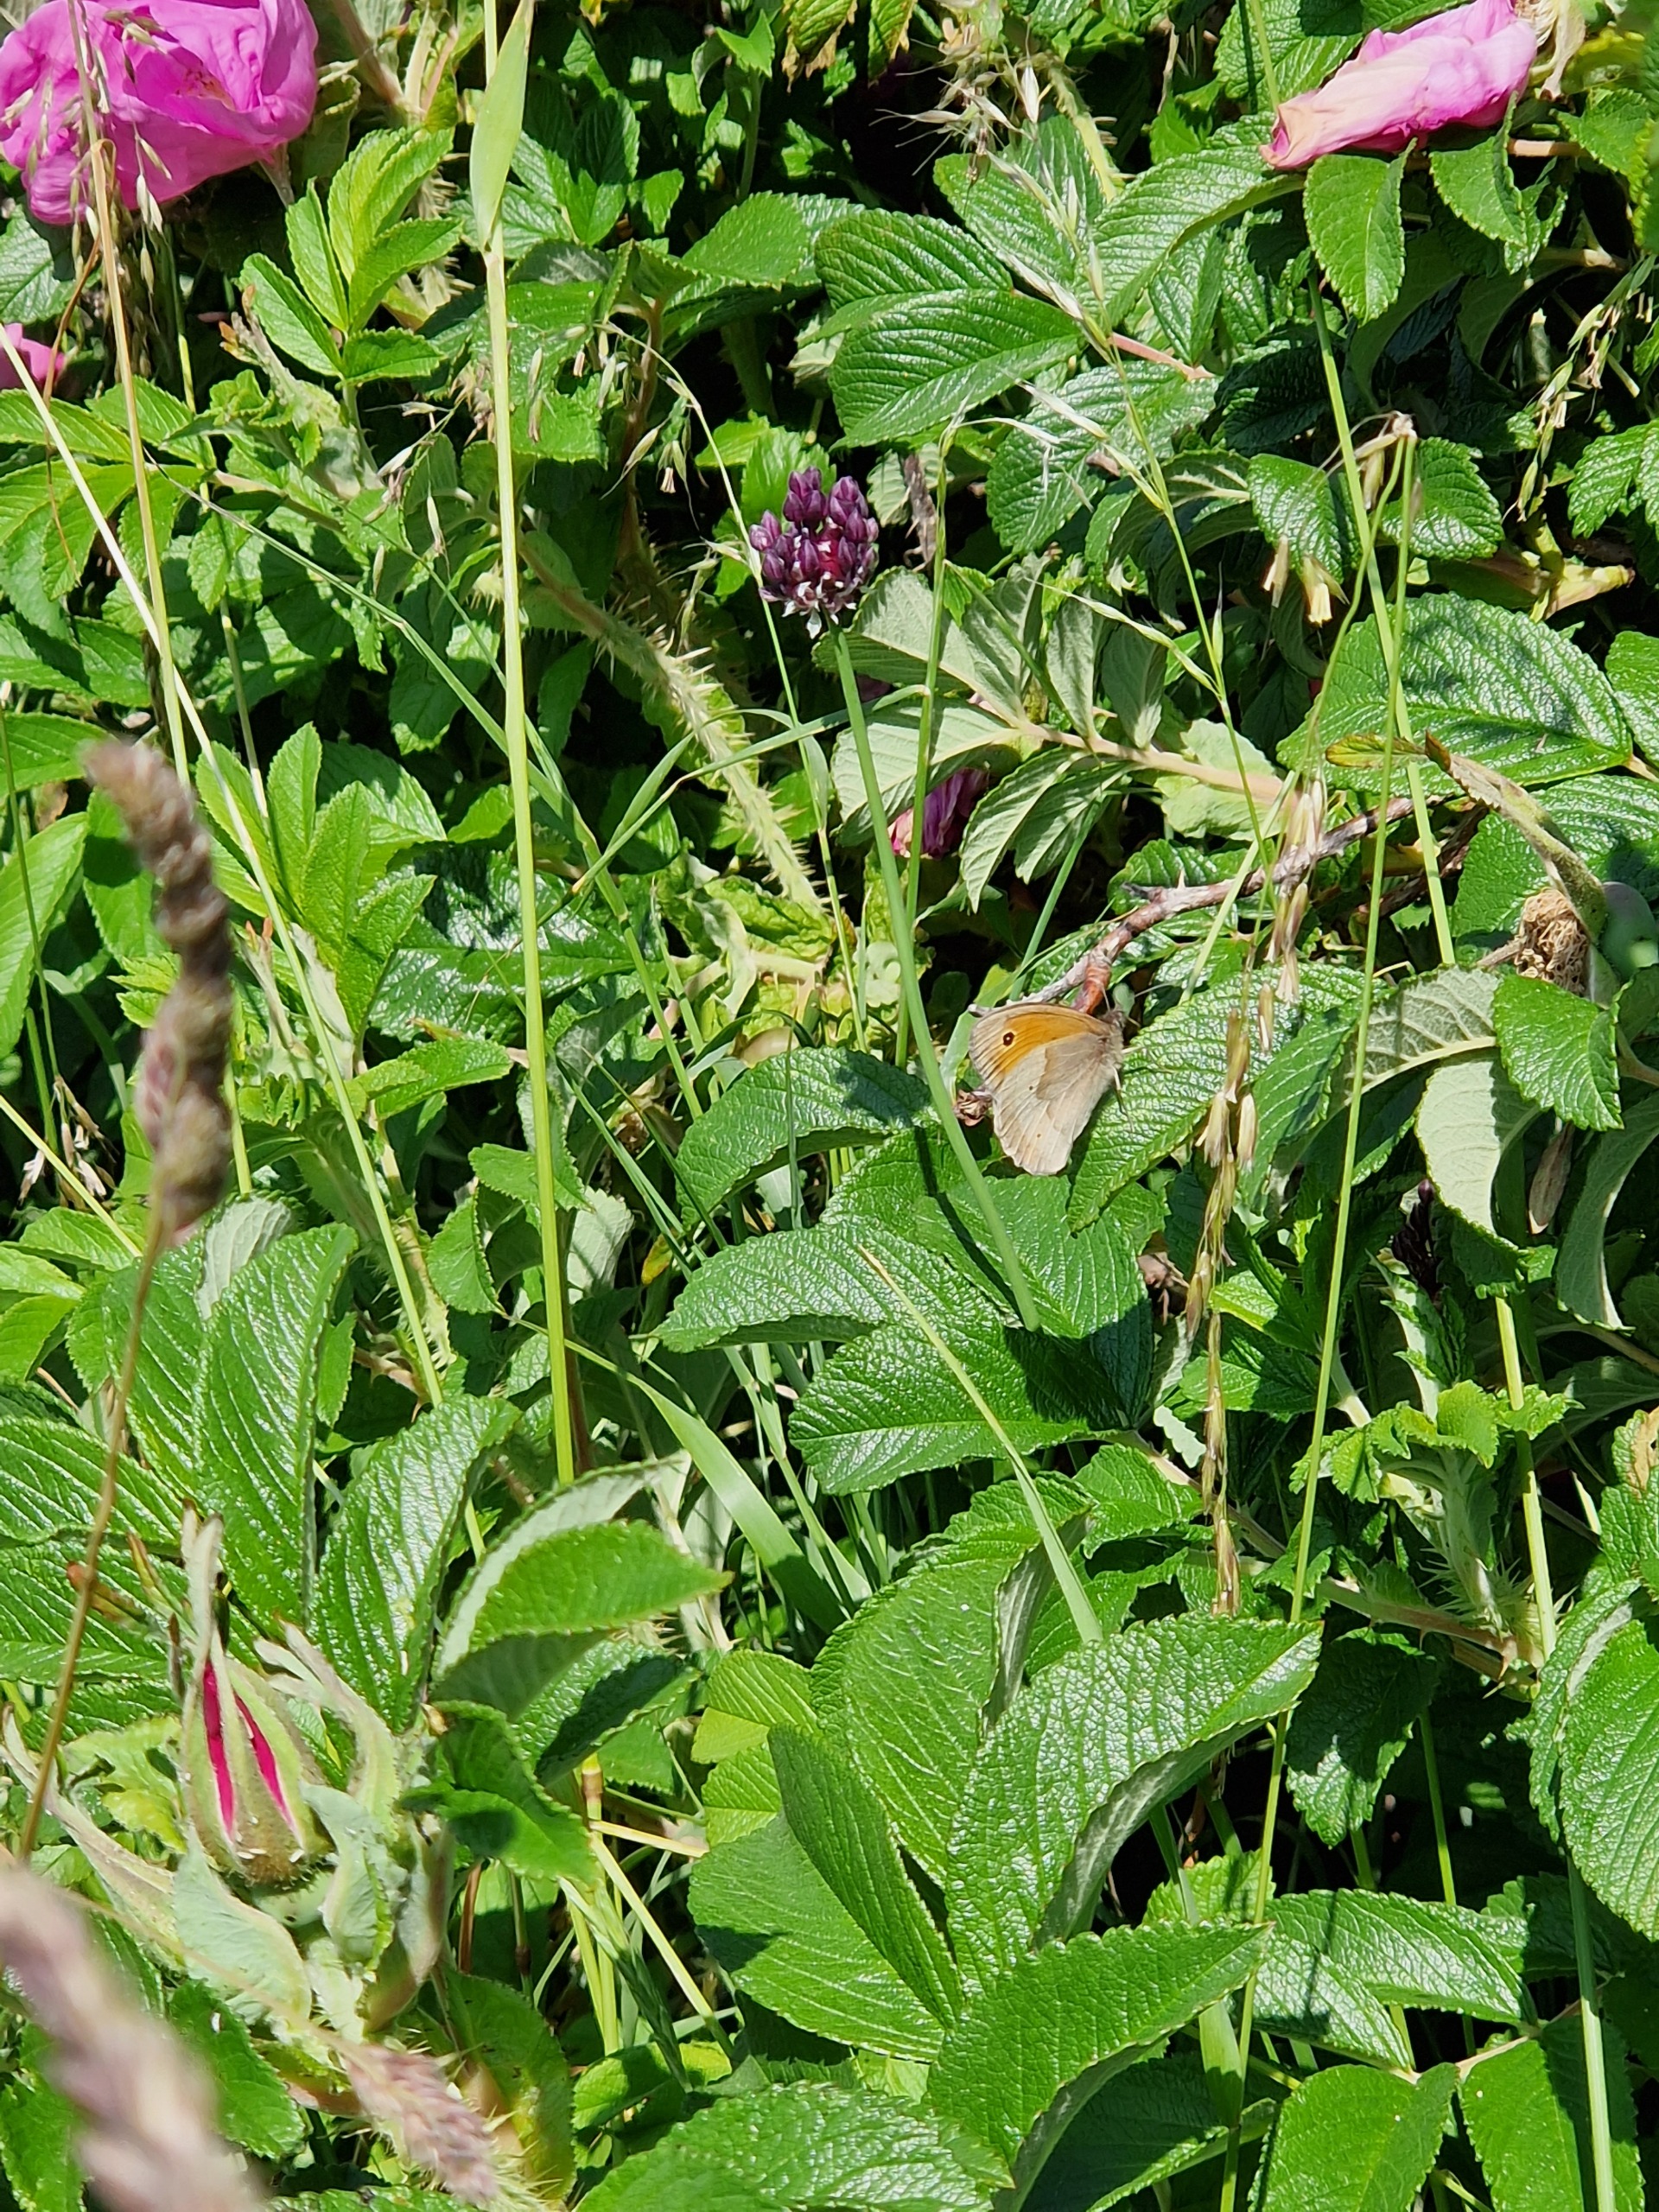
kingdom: Animalia
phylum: Arthropoda
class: Insecta
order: Lepidoptera
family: Nymphalidae
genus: Maniola
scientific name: Maniola jurtina
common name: Græsrandøje
